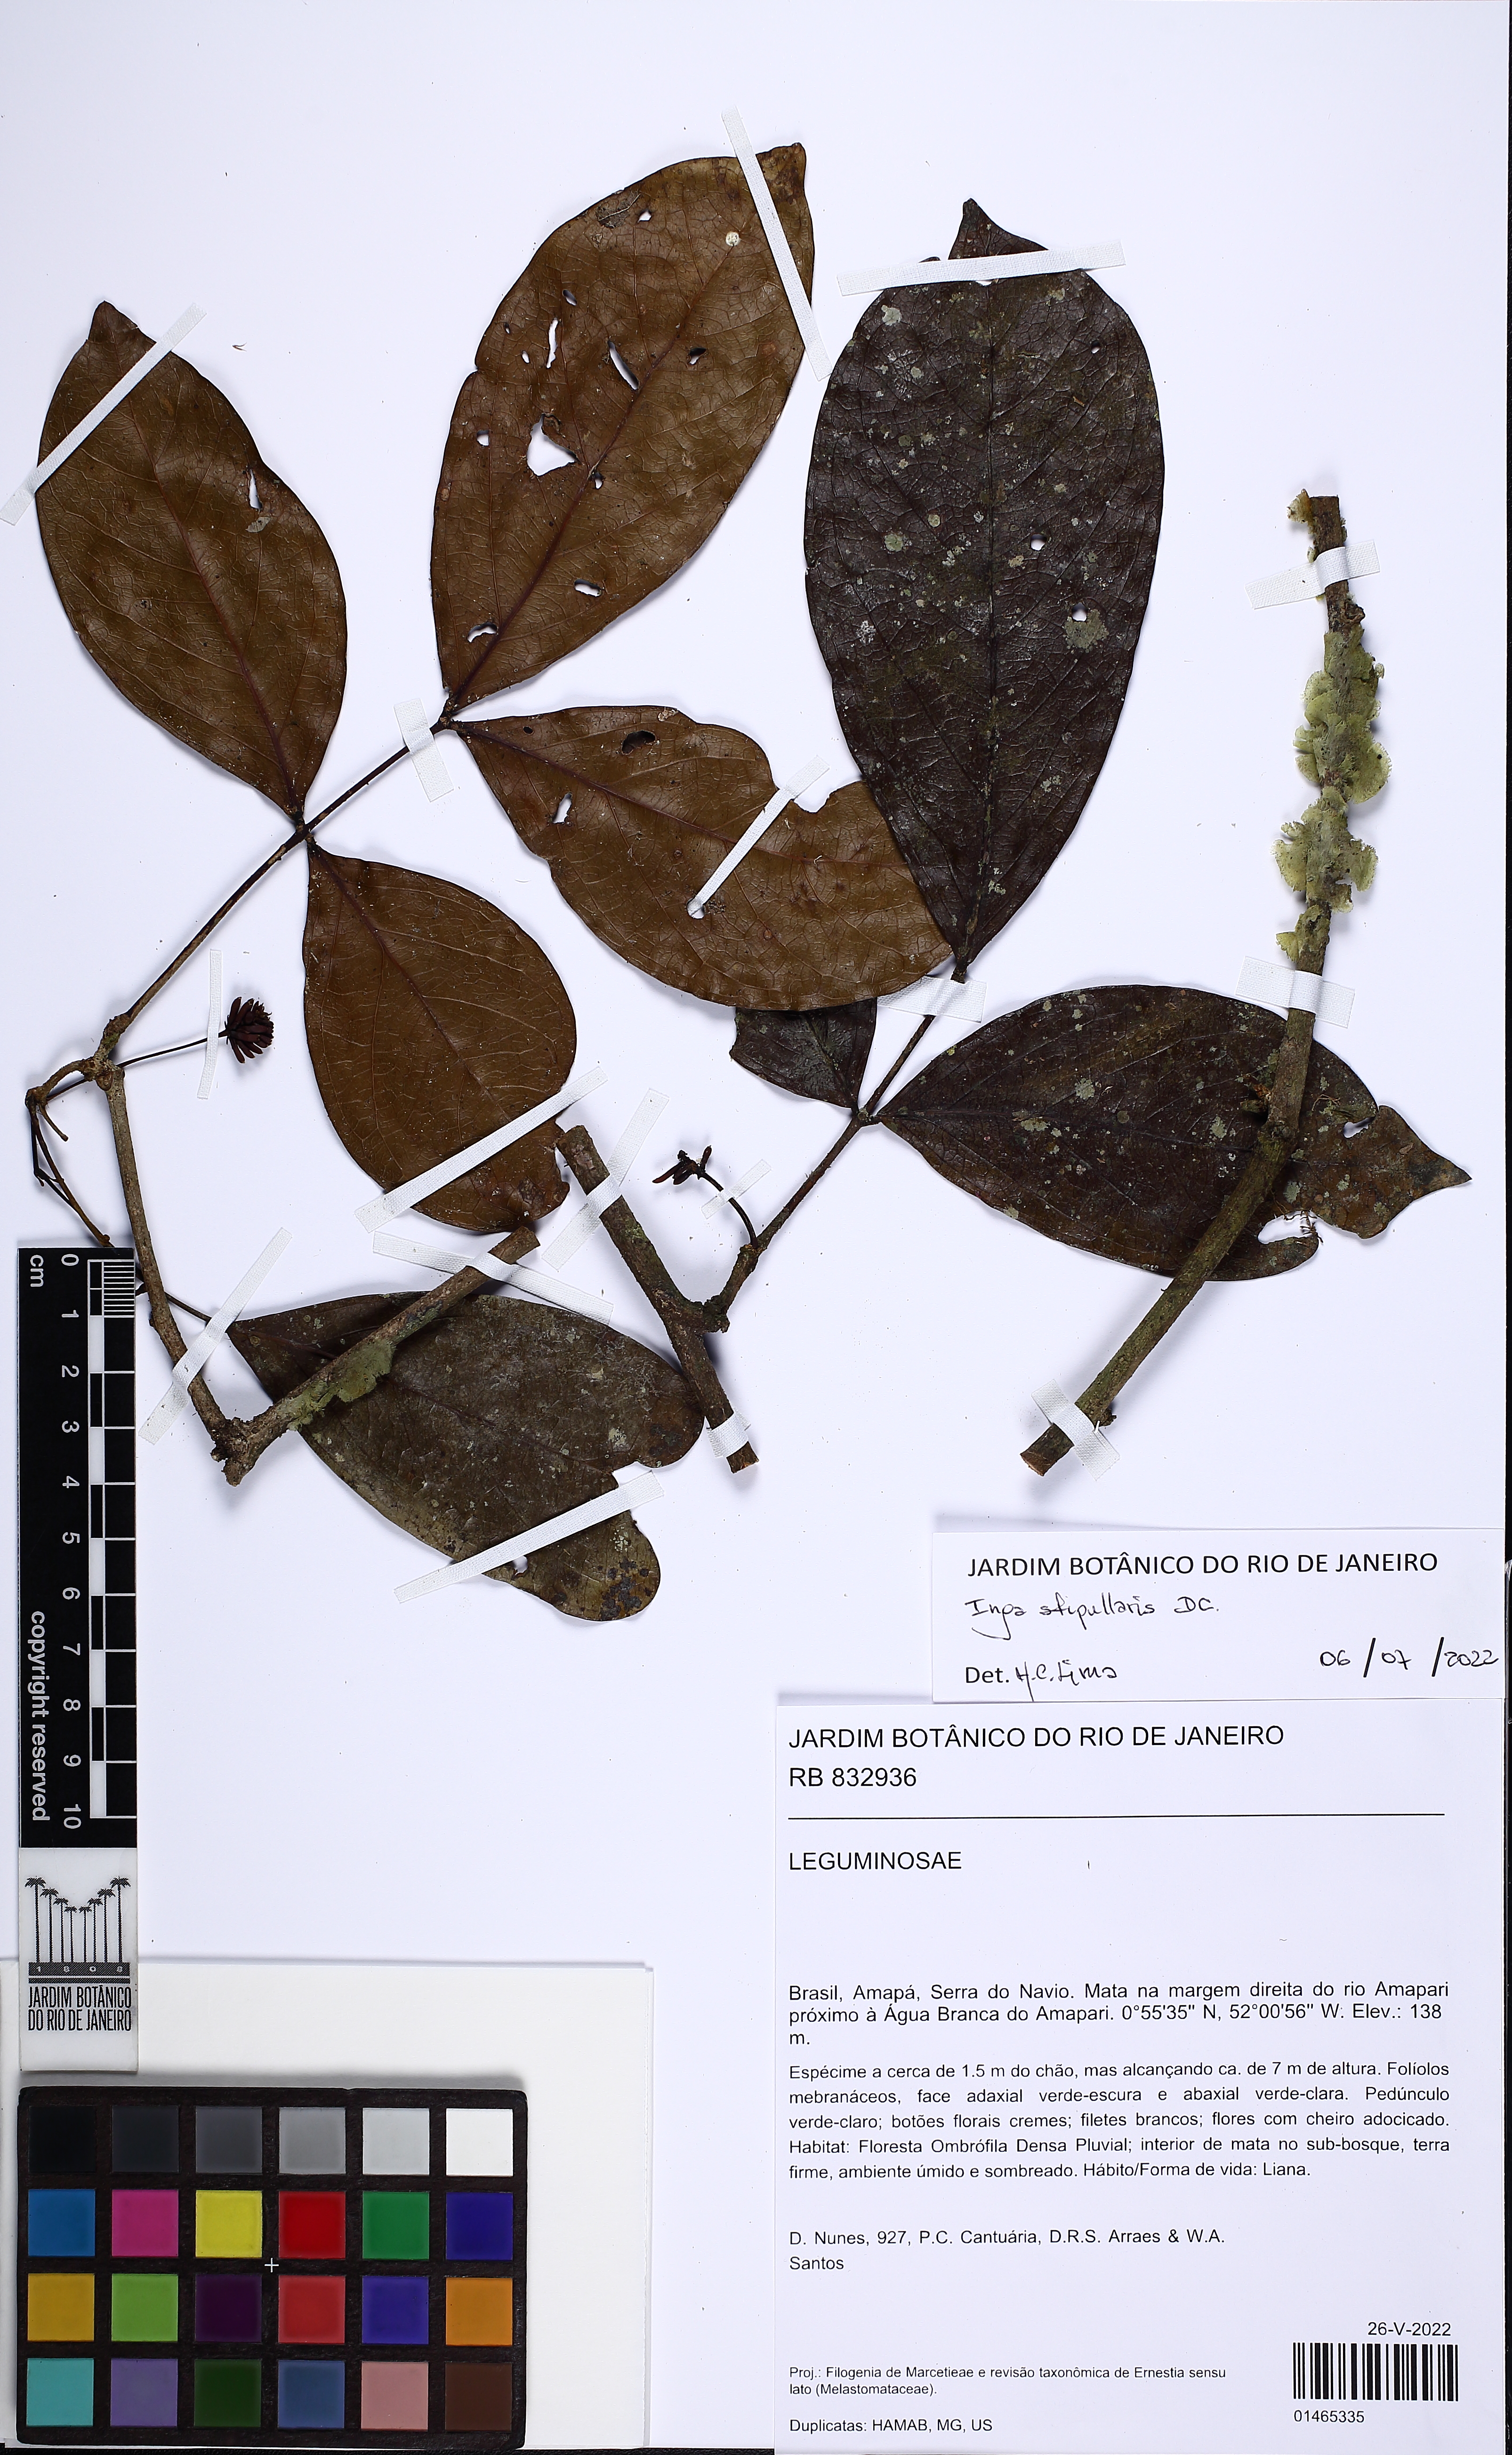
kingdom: Plantae
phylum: Tracheophyta
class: Magnoliopsida
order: Fabales
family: Fabaceae
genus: Inga
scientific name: Inga stipularis
